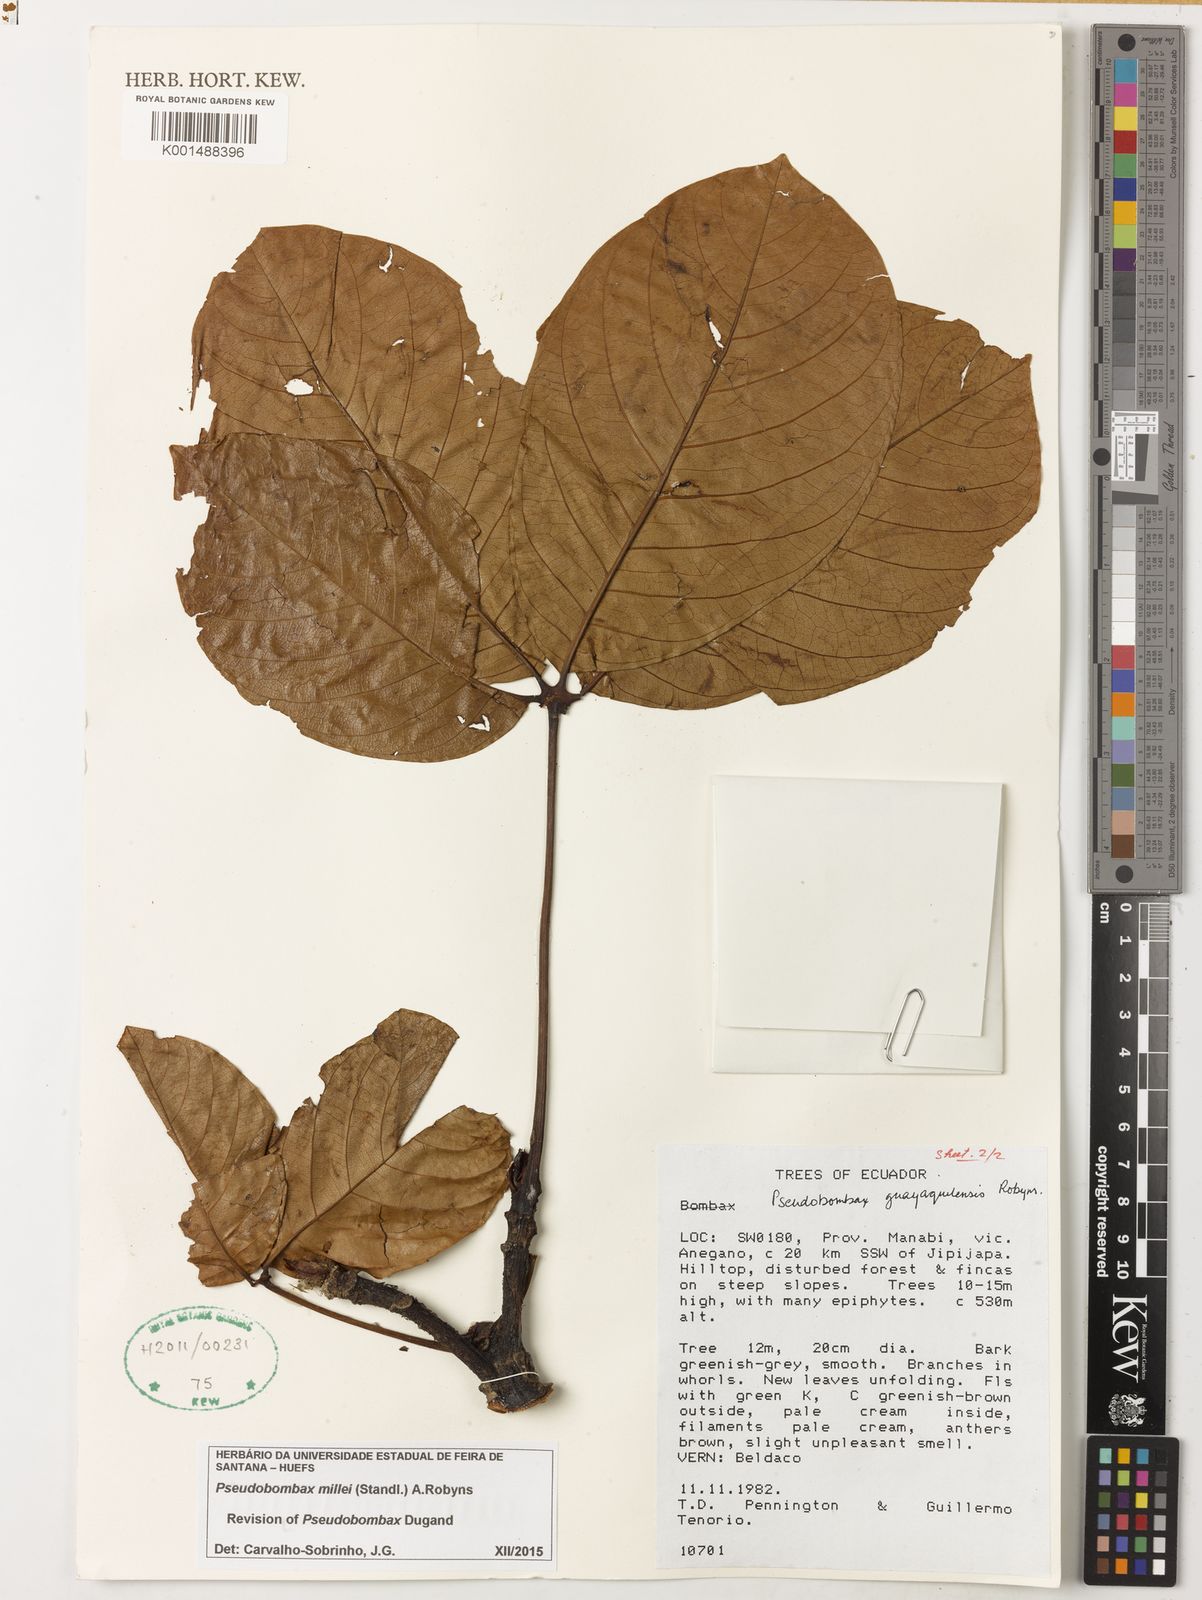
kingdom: Plantae
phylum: Tracheophyta
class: Magnoliopsida
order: Malvales
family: Malvaceae
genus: Pseudobombax
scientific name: Pseudobombax millei
